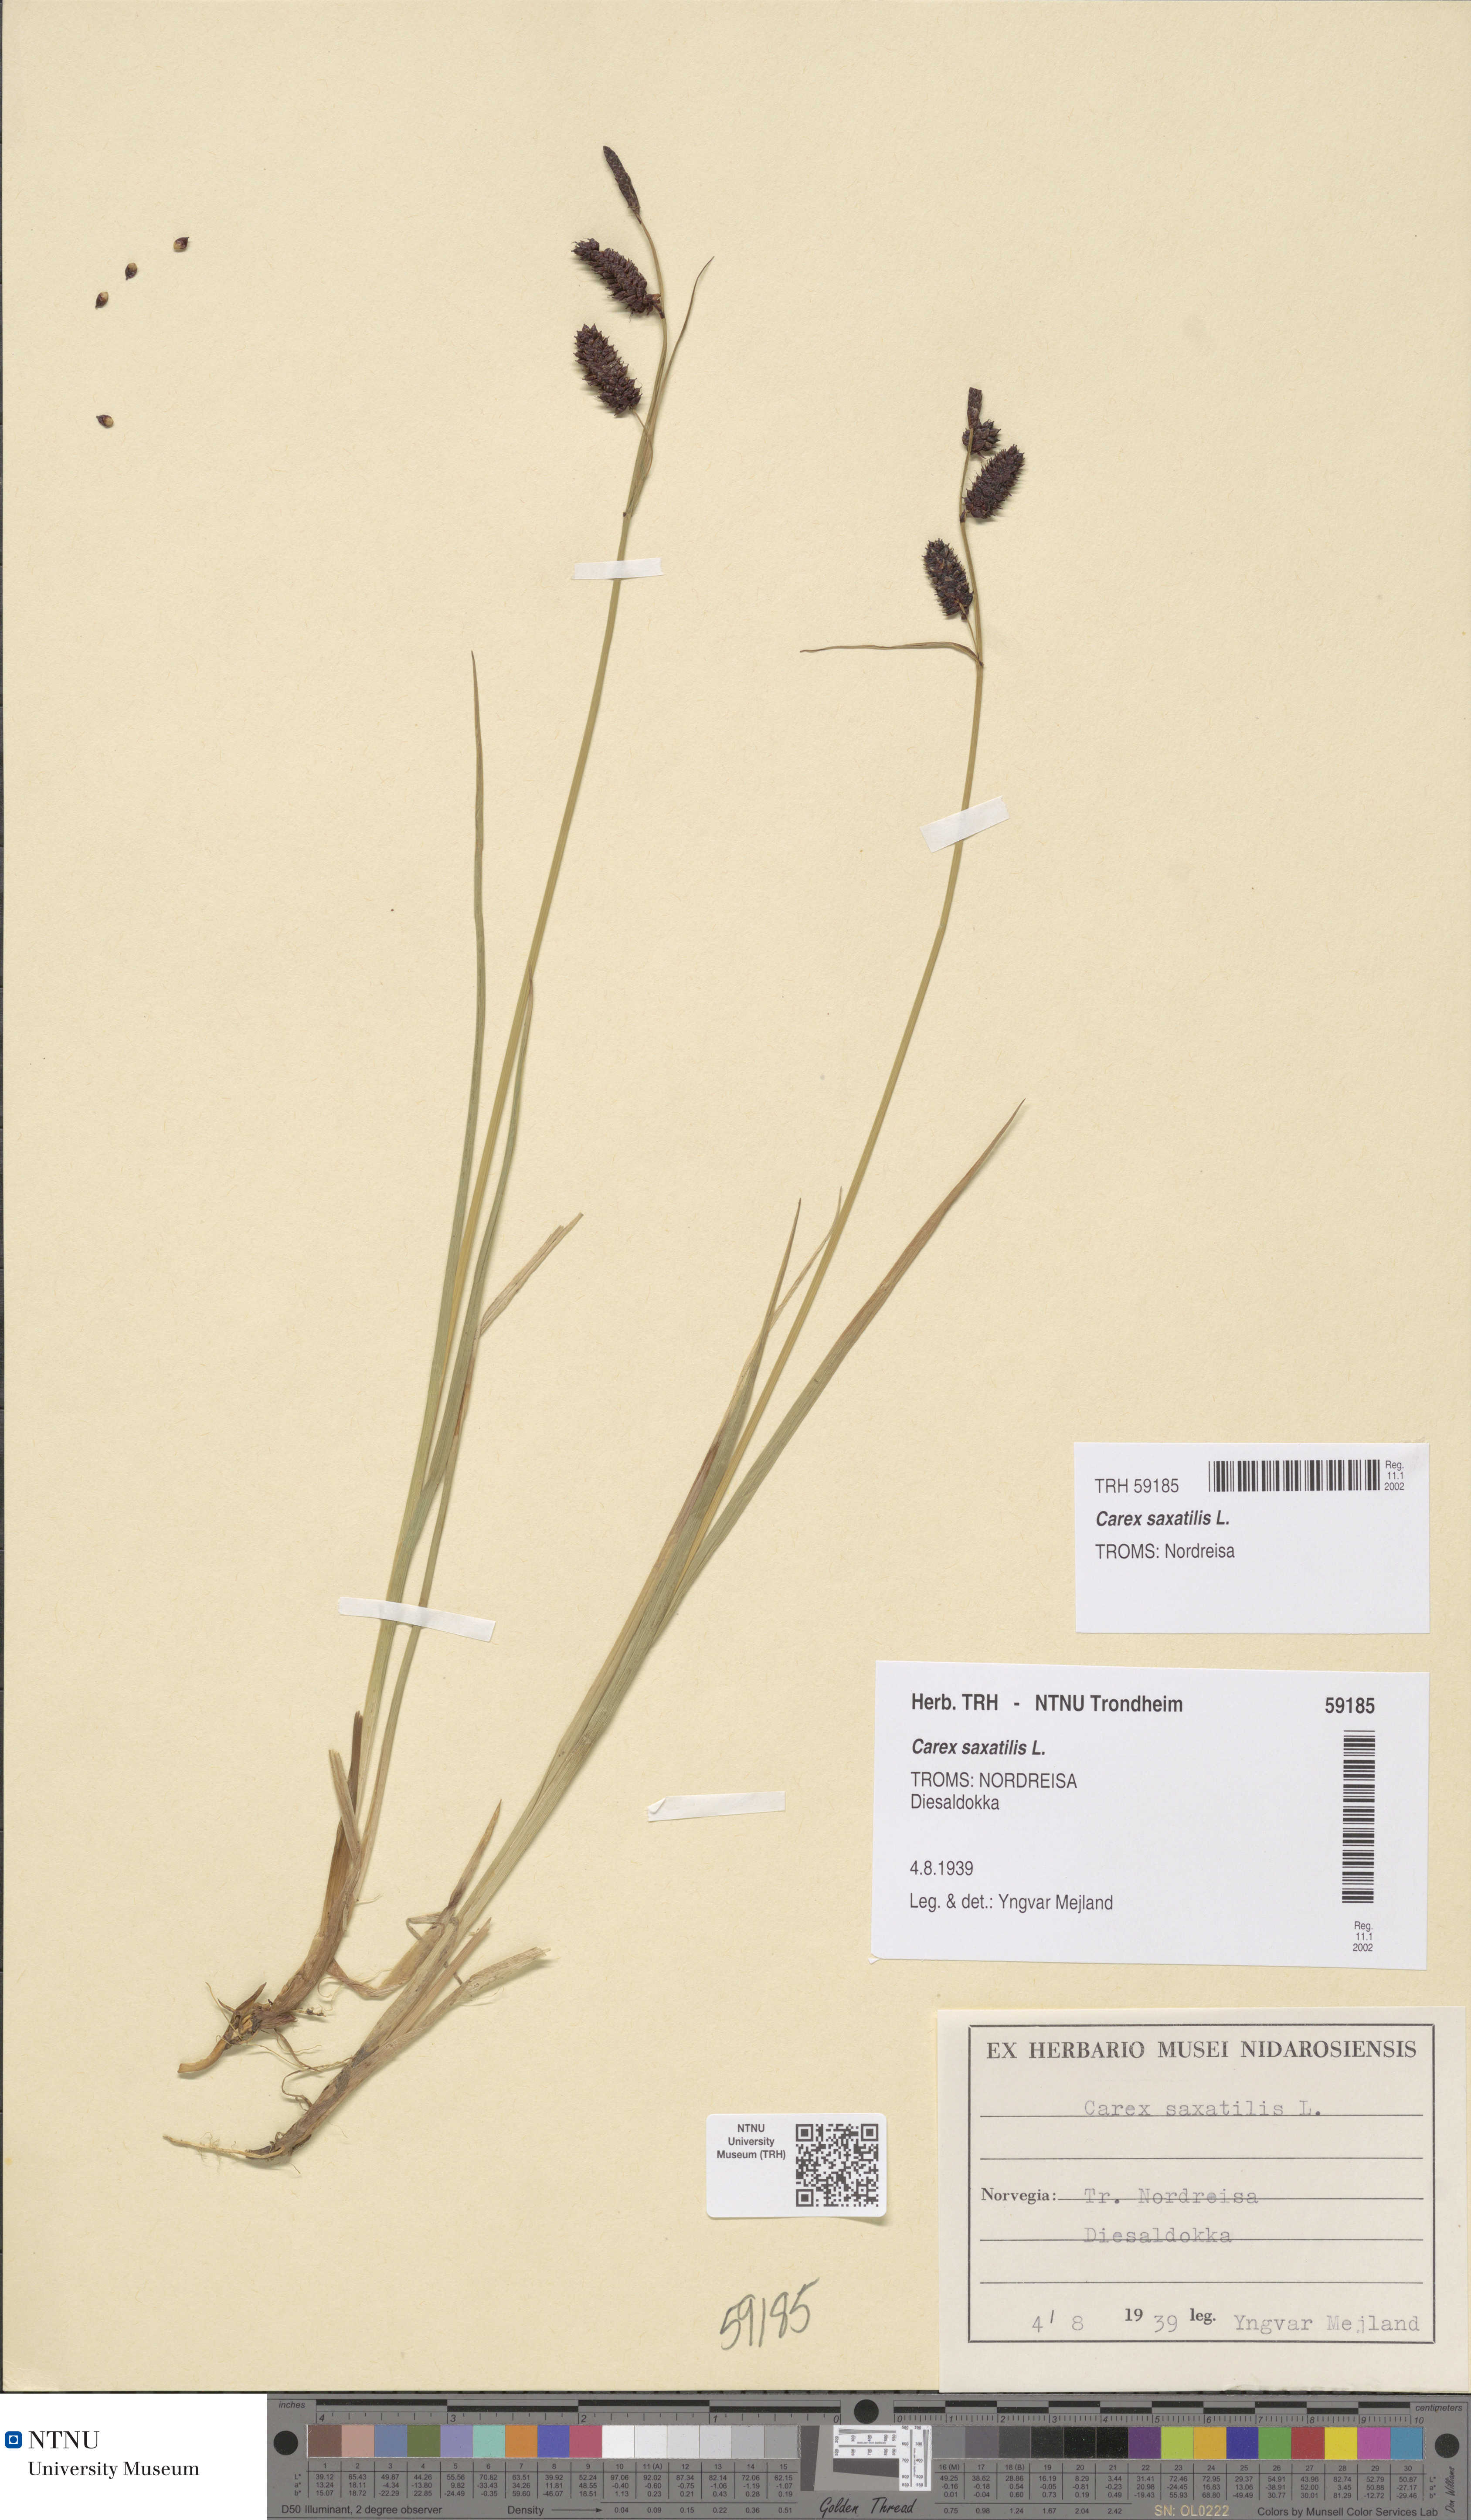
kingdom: Plantae
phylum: Tracheophyta
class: Liliopsida
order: Poales
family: Cyperaceae
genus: Carex
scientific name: Carex saxatilis
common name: Russet sedge
